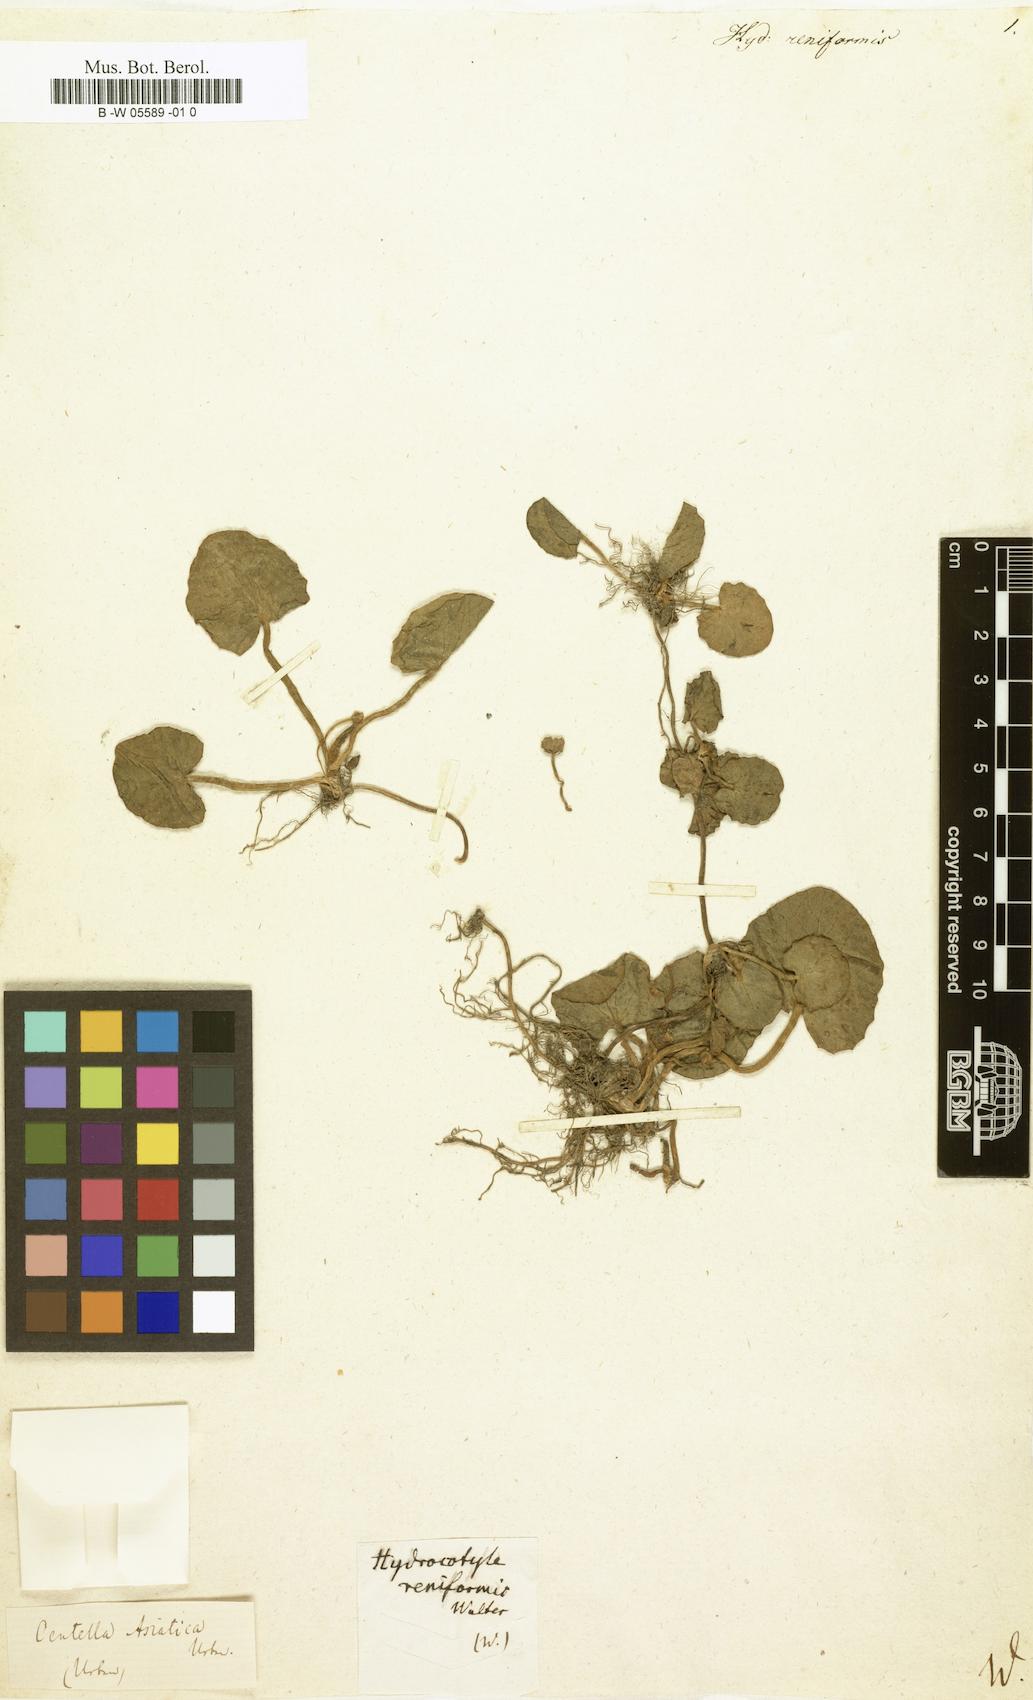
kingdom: Plantae
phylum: Tracheophyta
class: Magnoliopsida
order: Apiales
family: Apiaceae
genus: Centella
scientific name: Centella asiatica
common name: Spadeleaf
